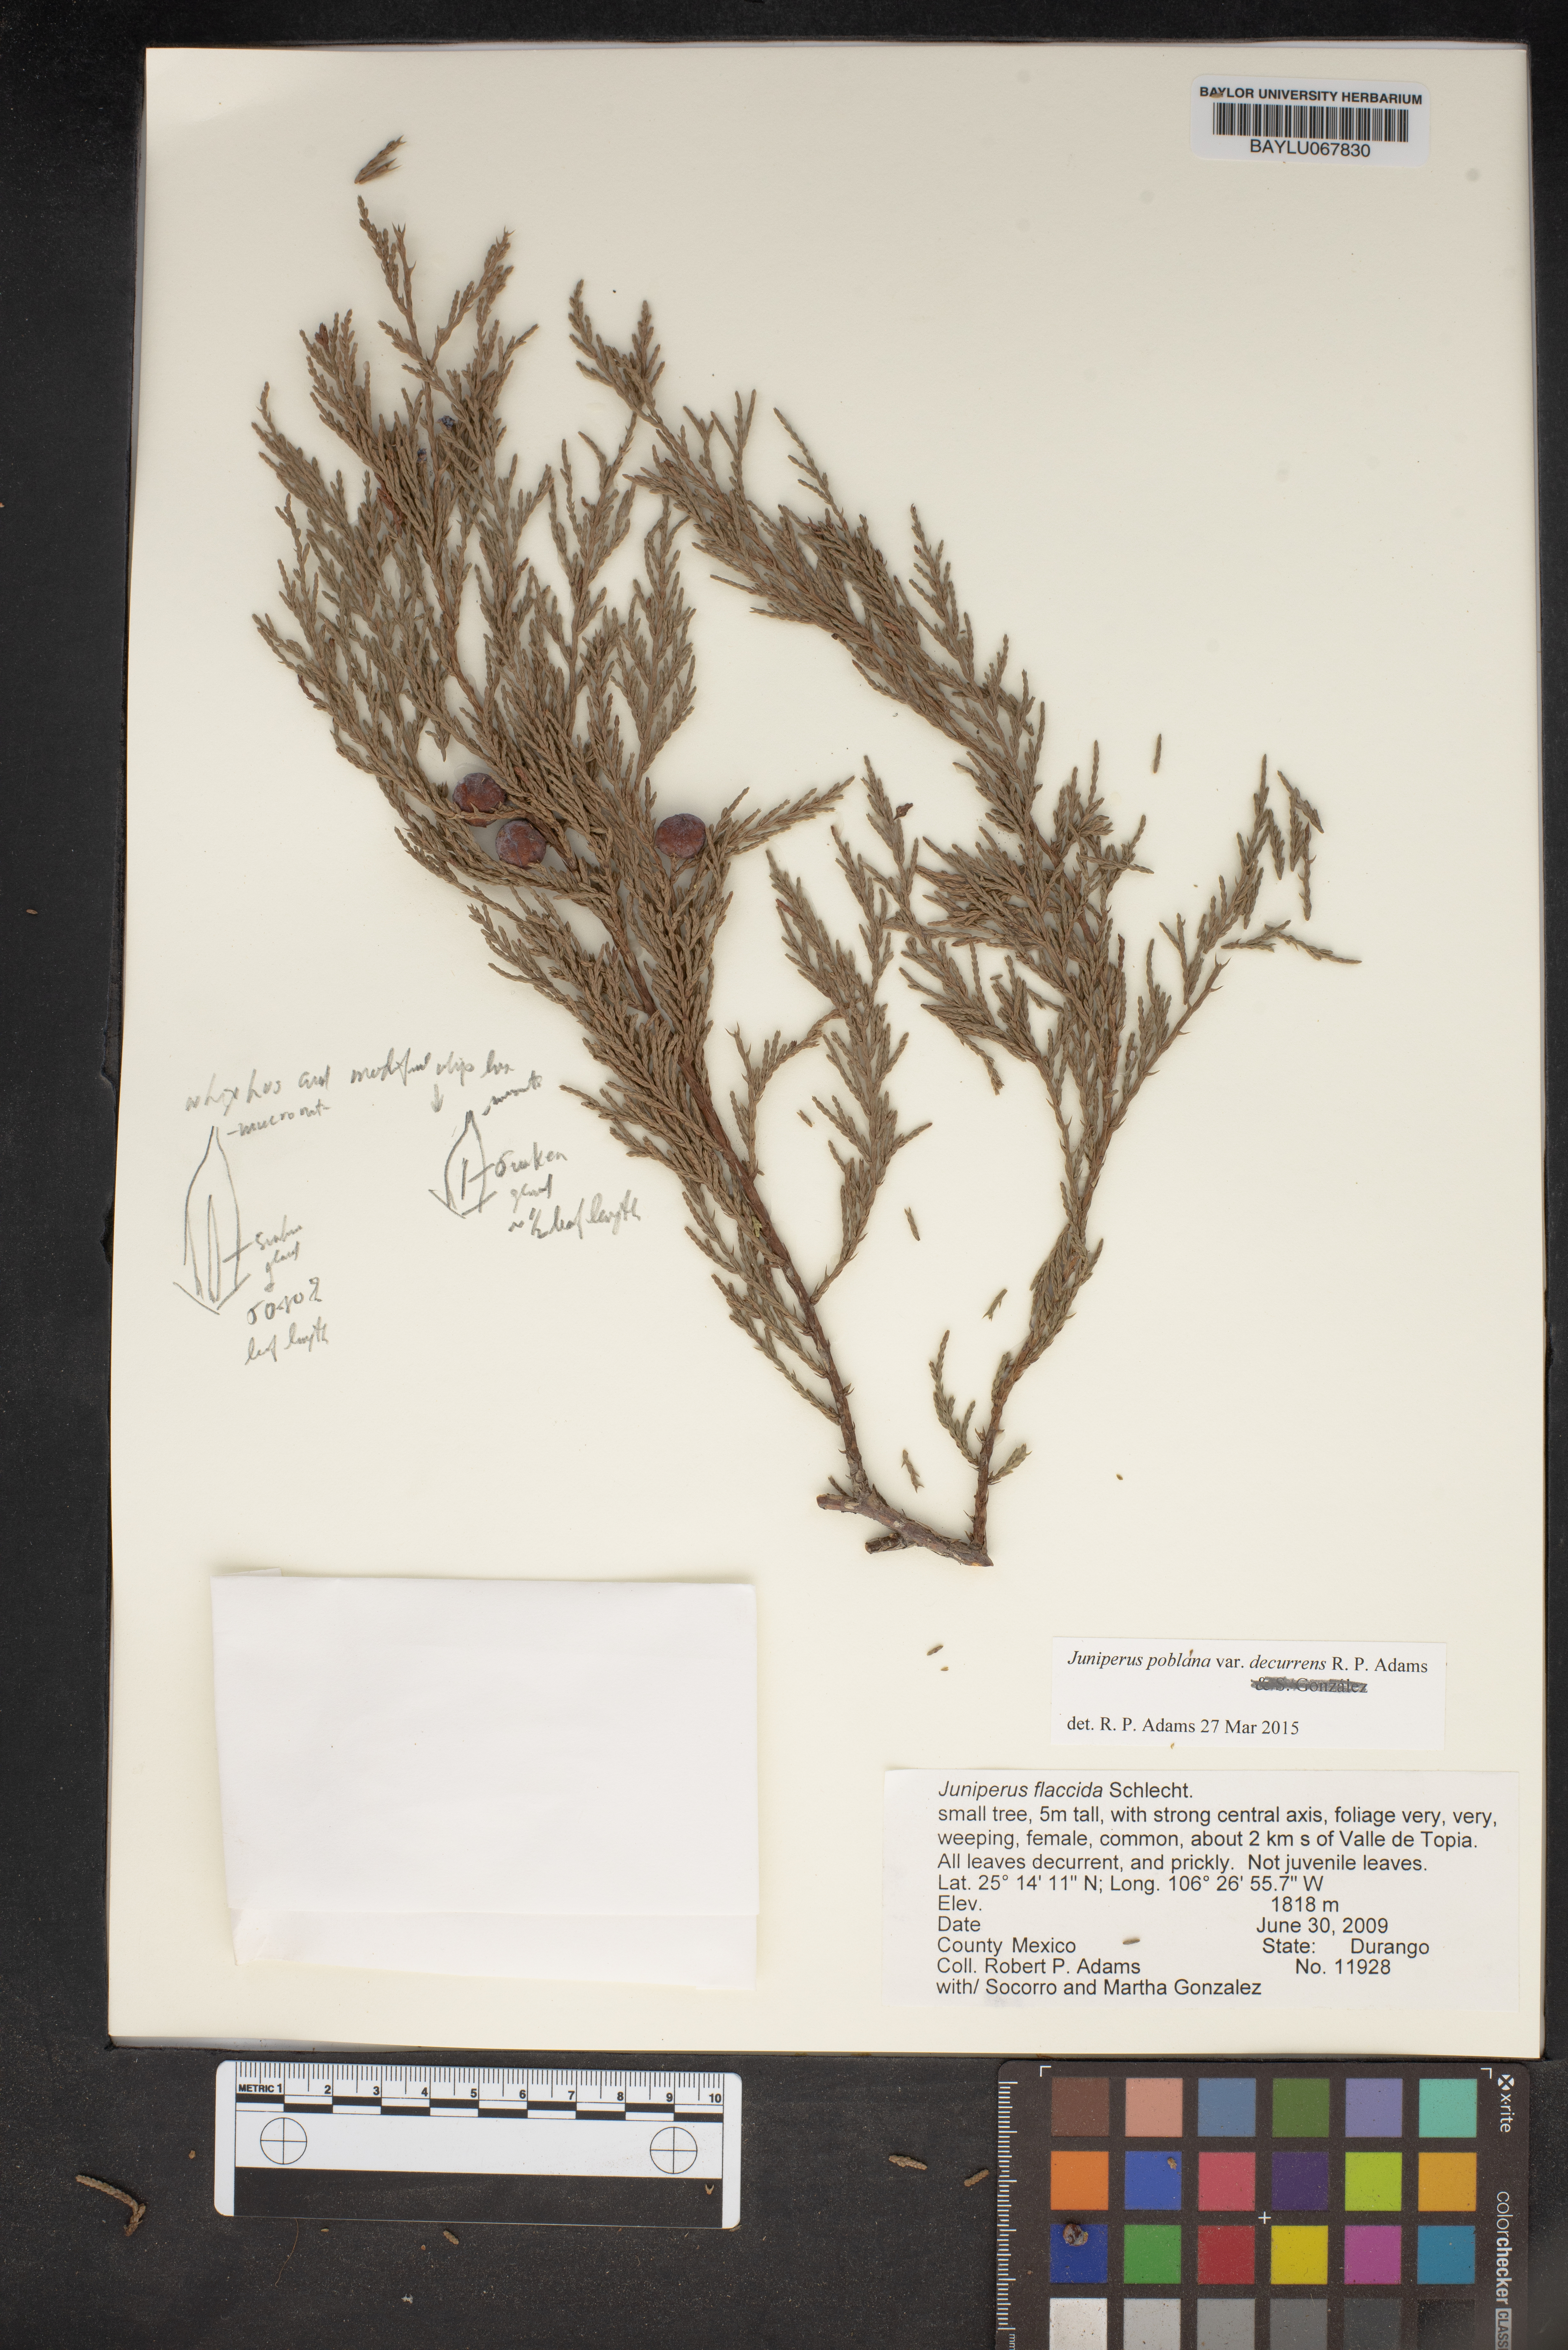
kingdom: Plantae
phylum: Tracheophyta
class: Pinopsida
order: Pinales
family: Cupressaceae
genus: Juniperus
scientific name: Juniperus flaccida
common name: Drooping juniper
